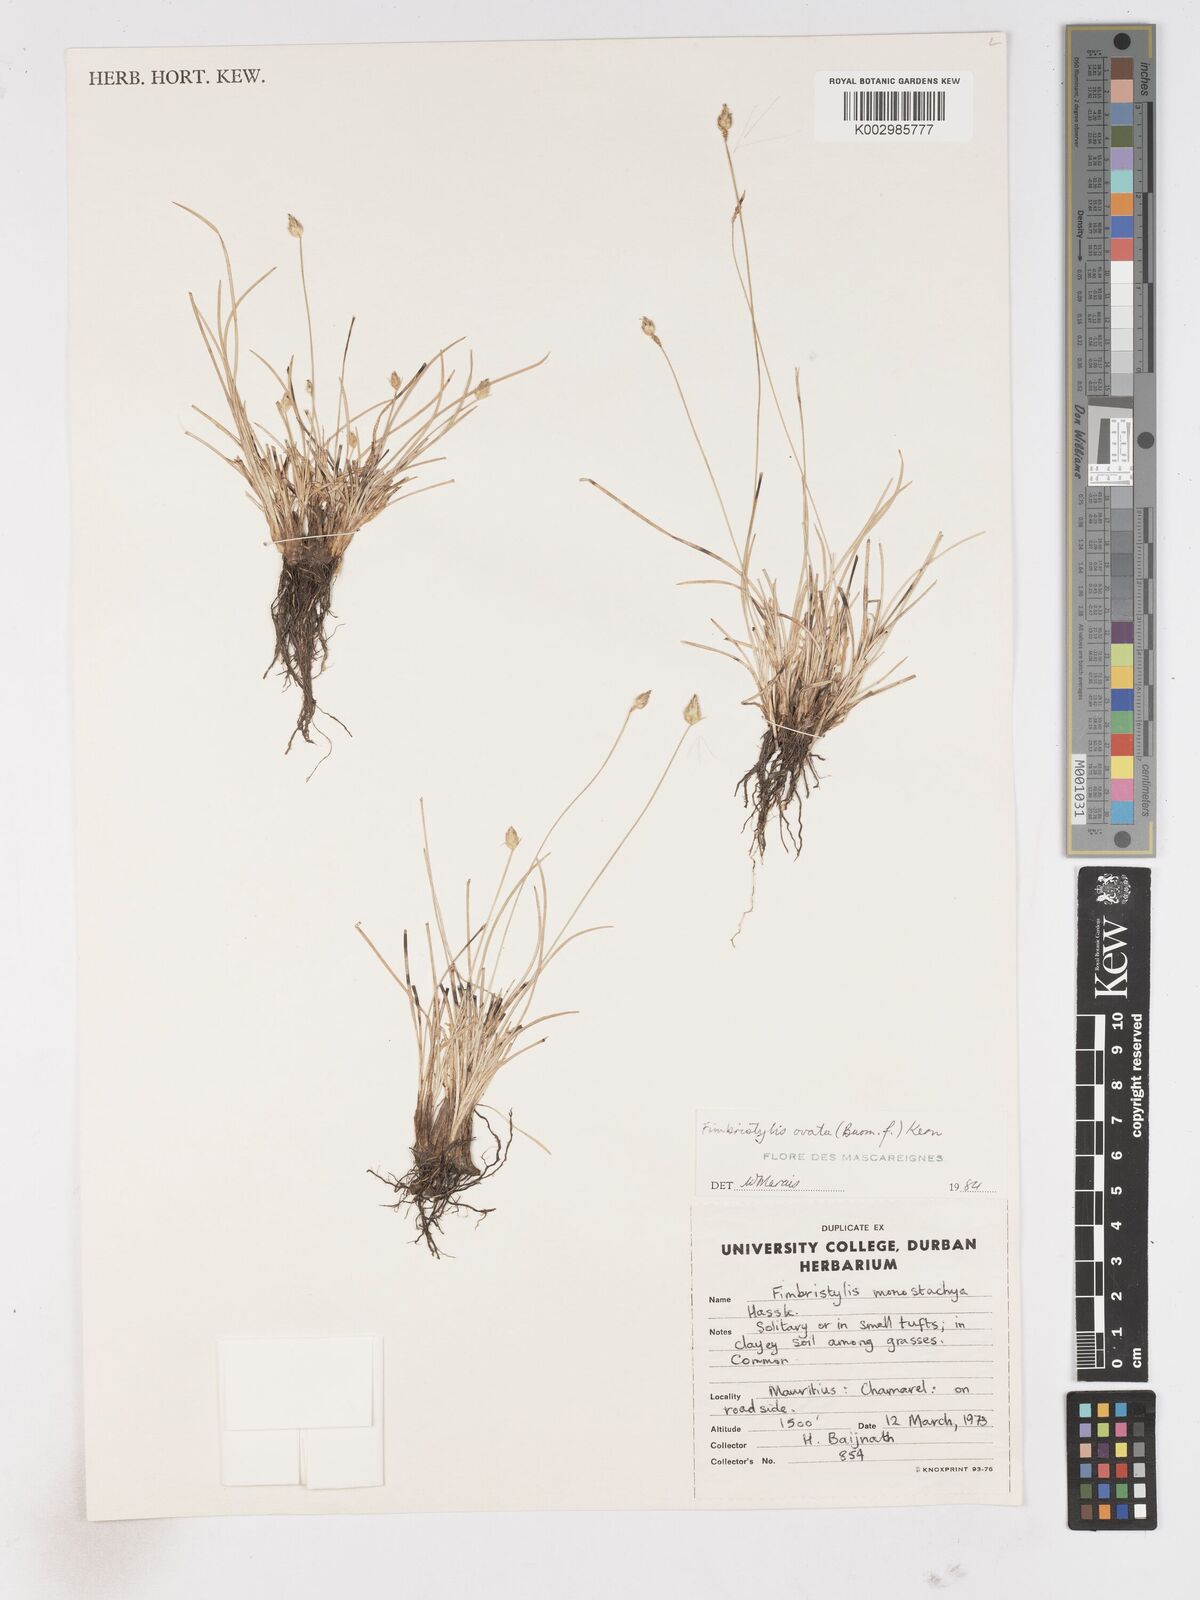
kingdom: Plantae
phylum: Tracheophyta
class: Liliopsida
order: Poales
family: Cyperaceae
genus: Abildgaardia
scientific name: Abildgaardia ovata
